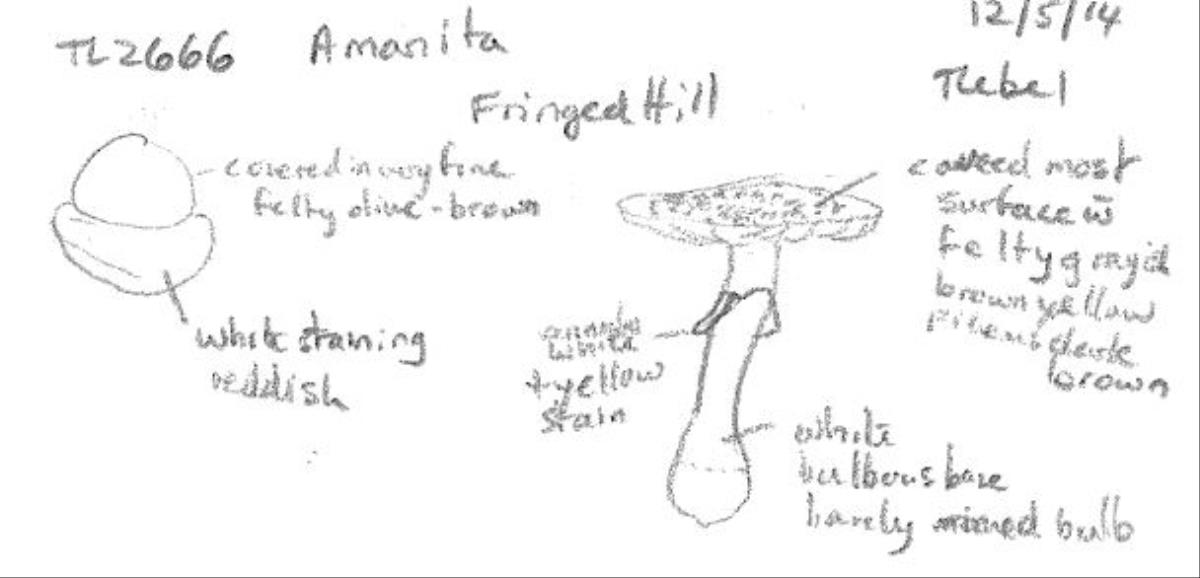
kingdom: Fungi
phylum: Basidiomycota
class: Agaricomycetes
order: Agaricales
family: Amanitaceae
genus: Amanita
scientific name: Amanita
